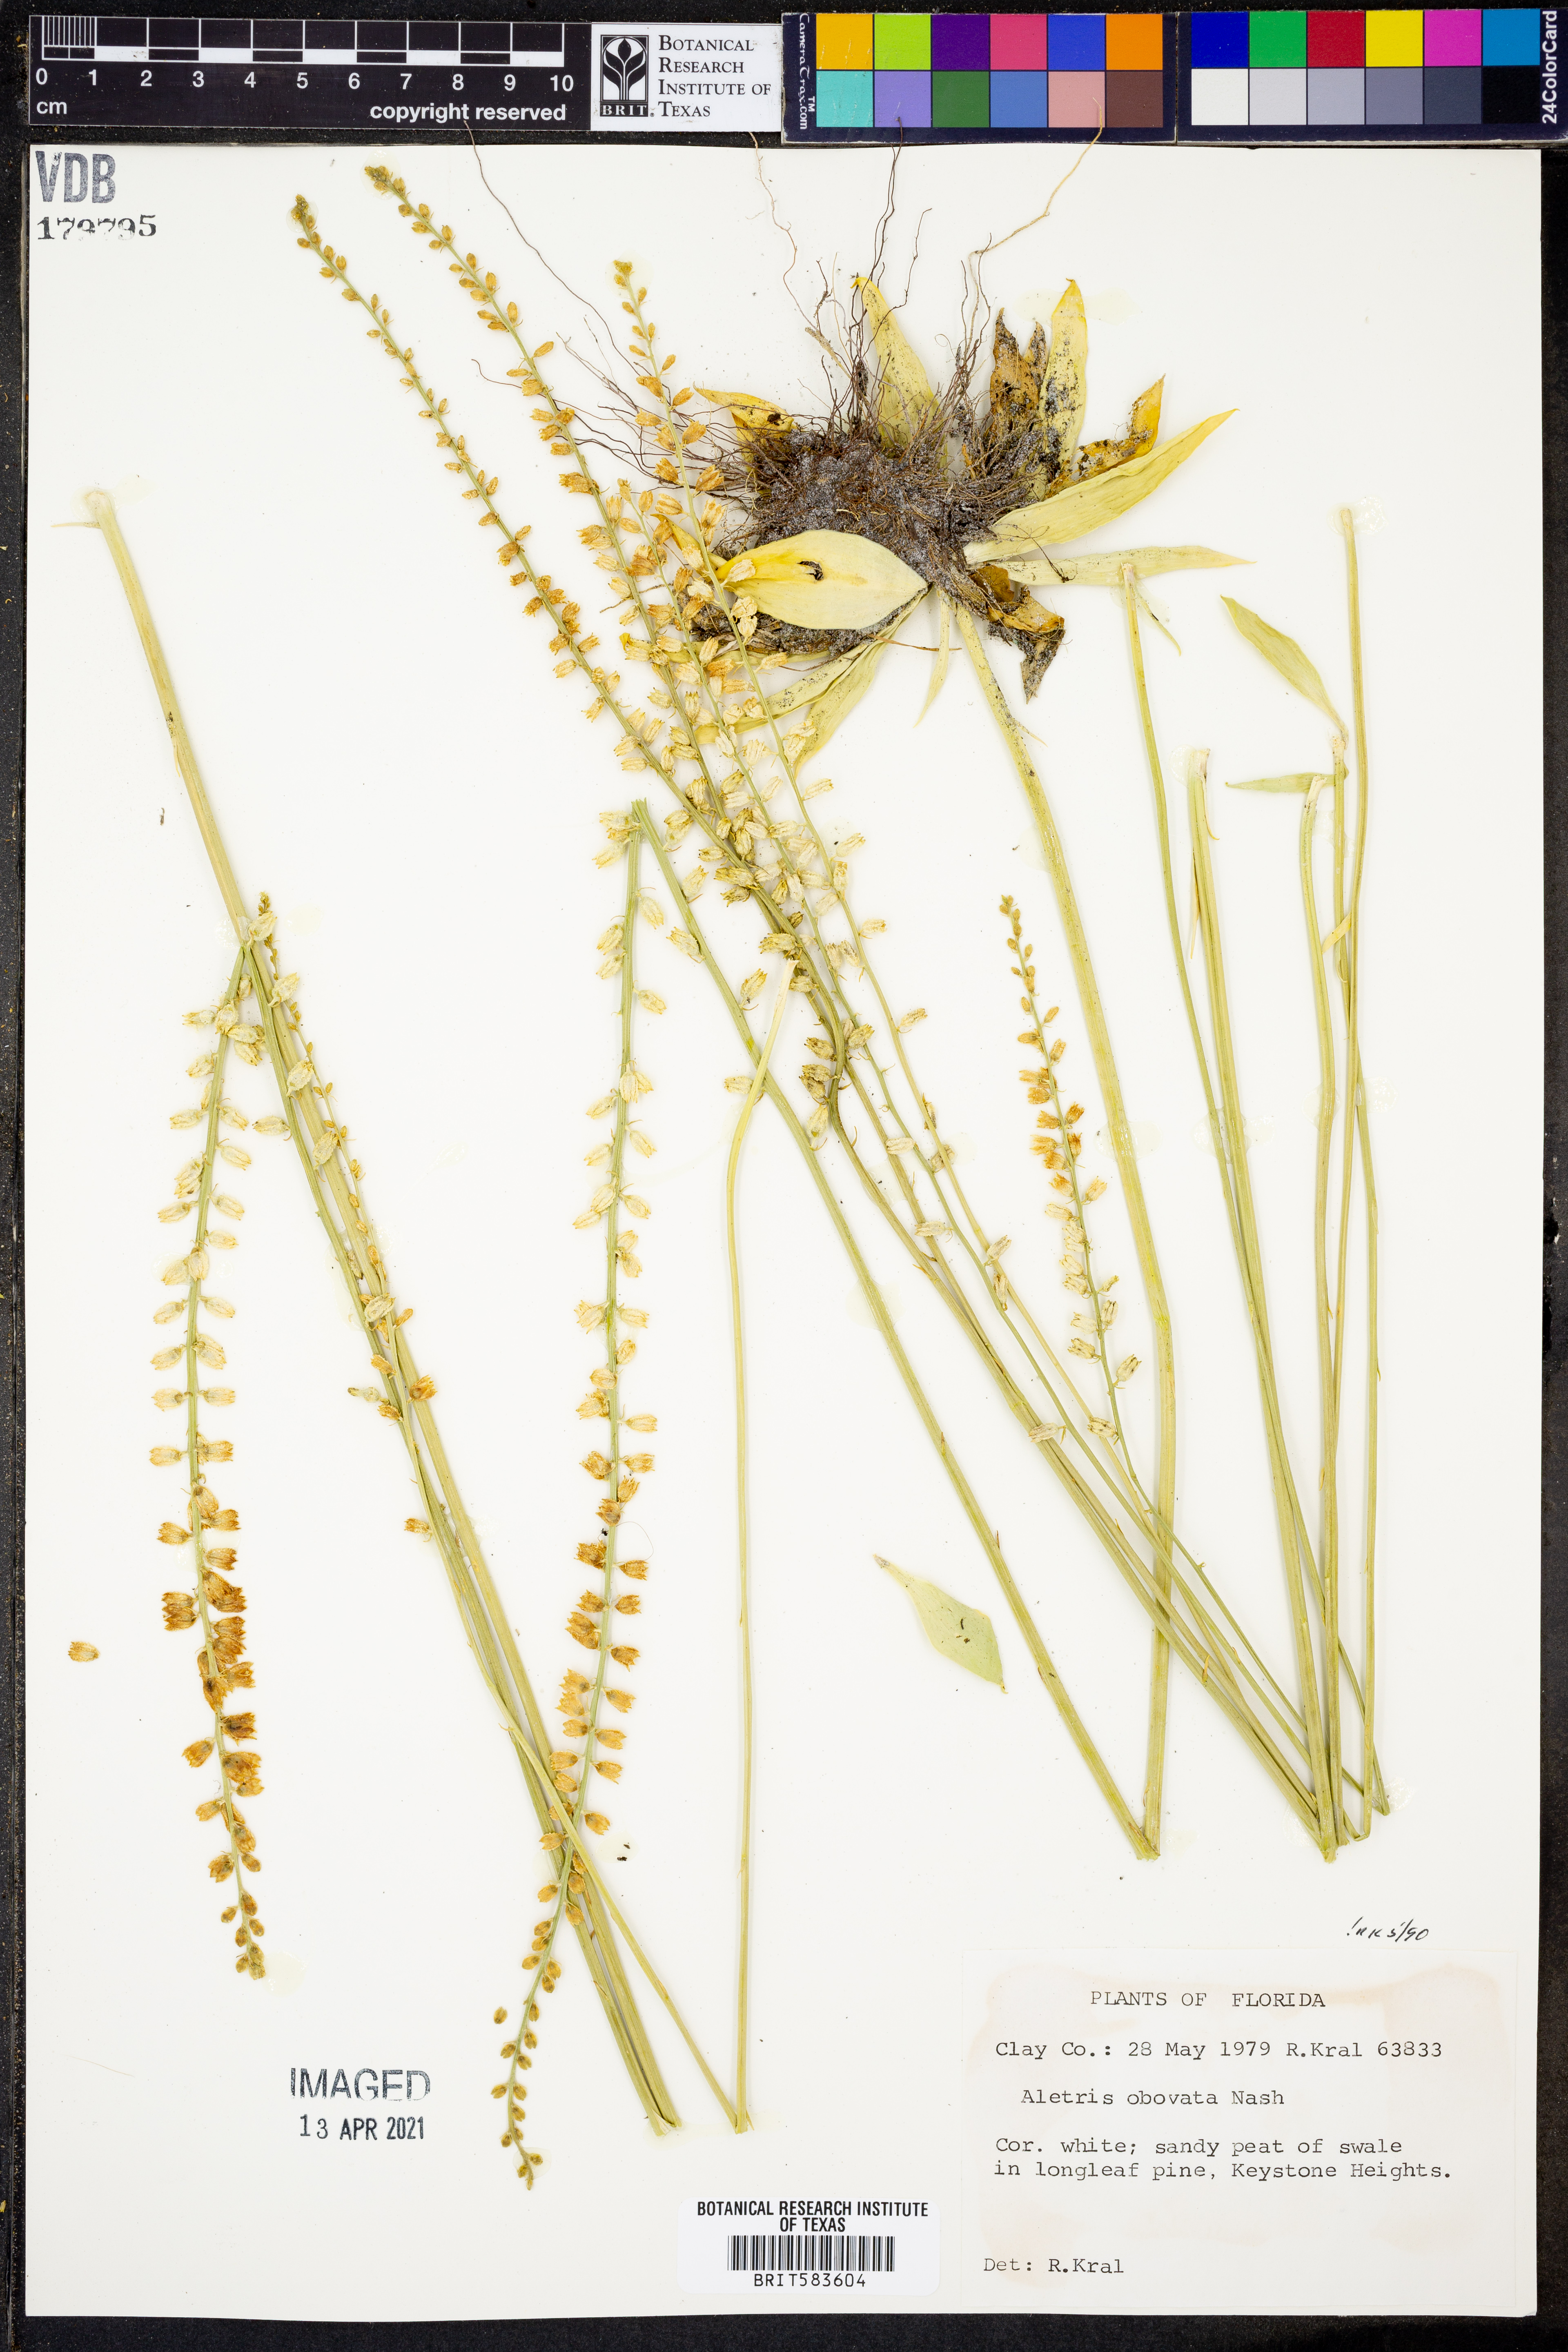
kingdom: Plantae
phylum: Tracheophyta
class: Liliopsida
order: Dioscoreales
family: Nartheciaceae
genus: Aletris
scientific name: Aletris obovata
